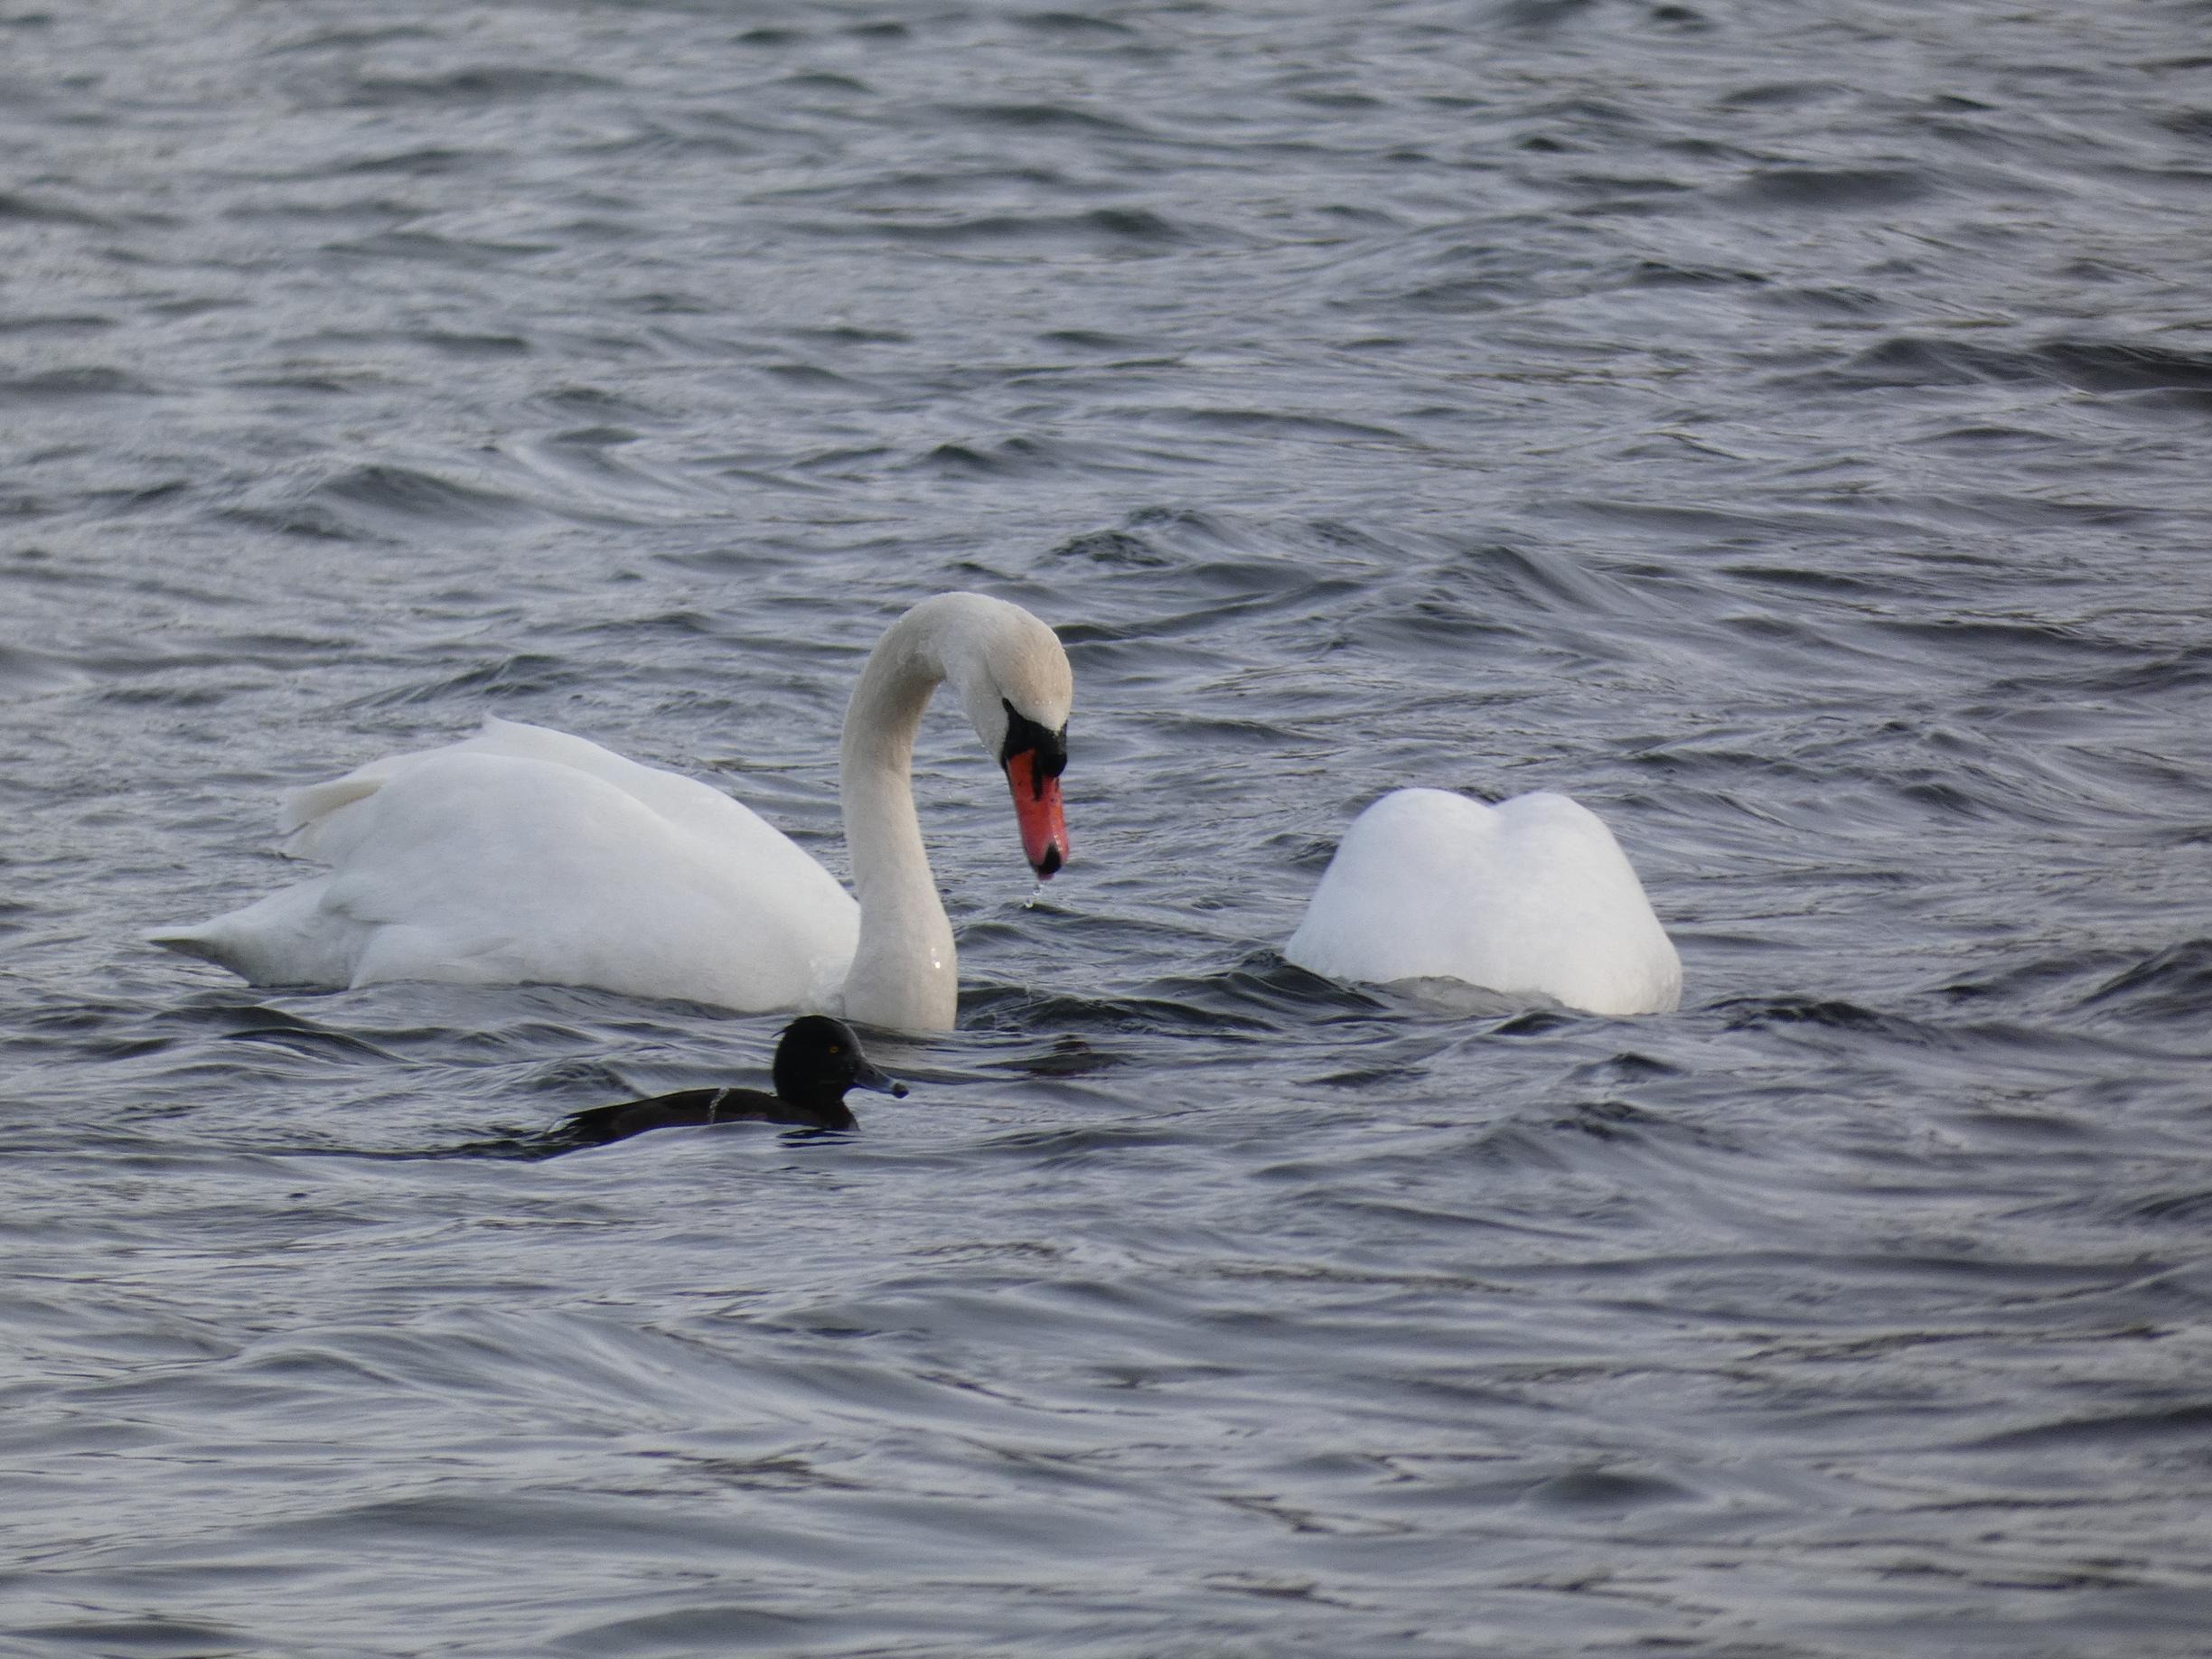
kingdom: Animalia
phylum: Chordata
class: Aves
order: Anseriformes
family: Anatidae
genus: Cygnus
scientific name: Cygnus olor
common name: Knopsvane
